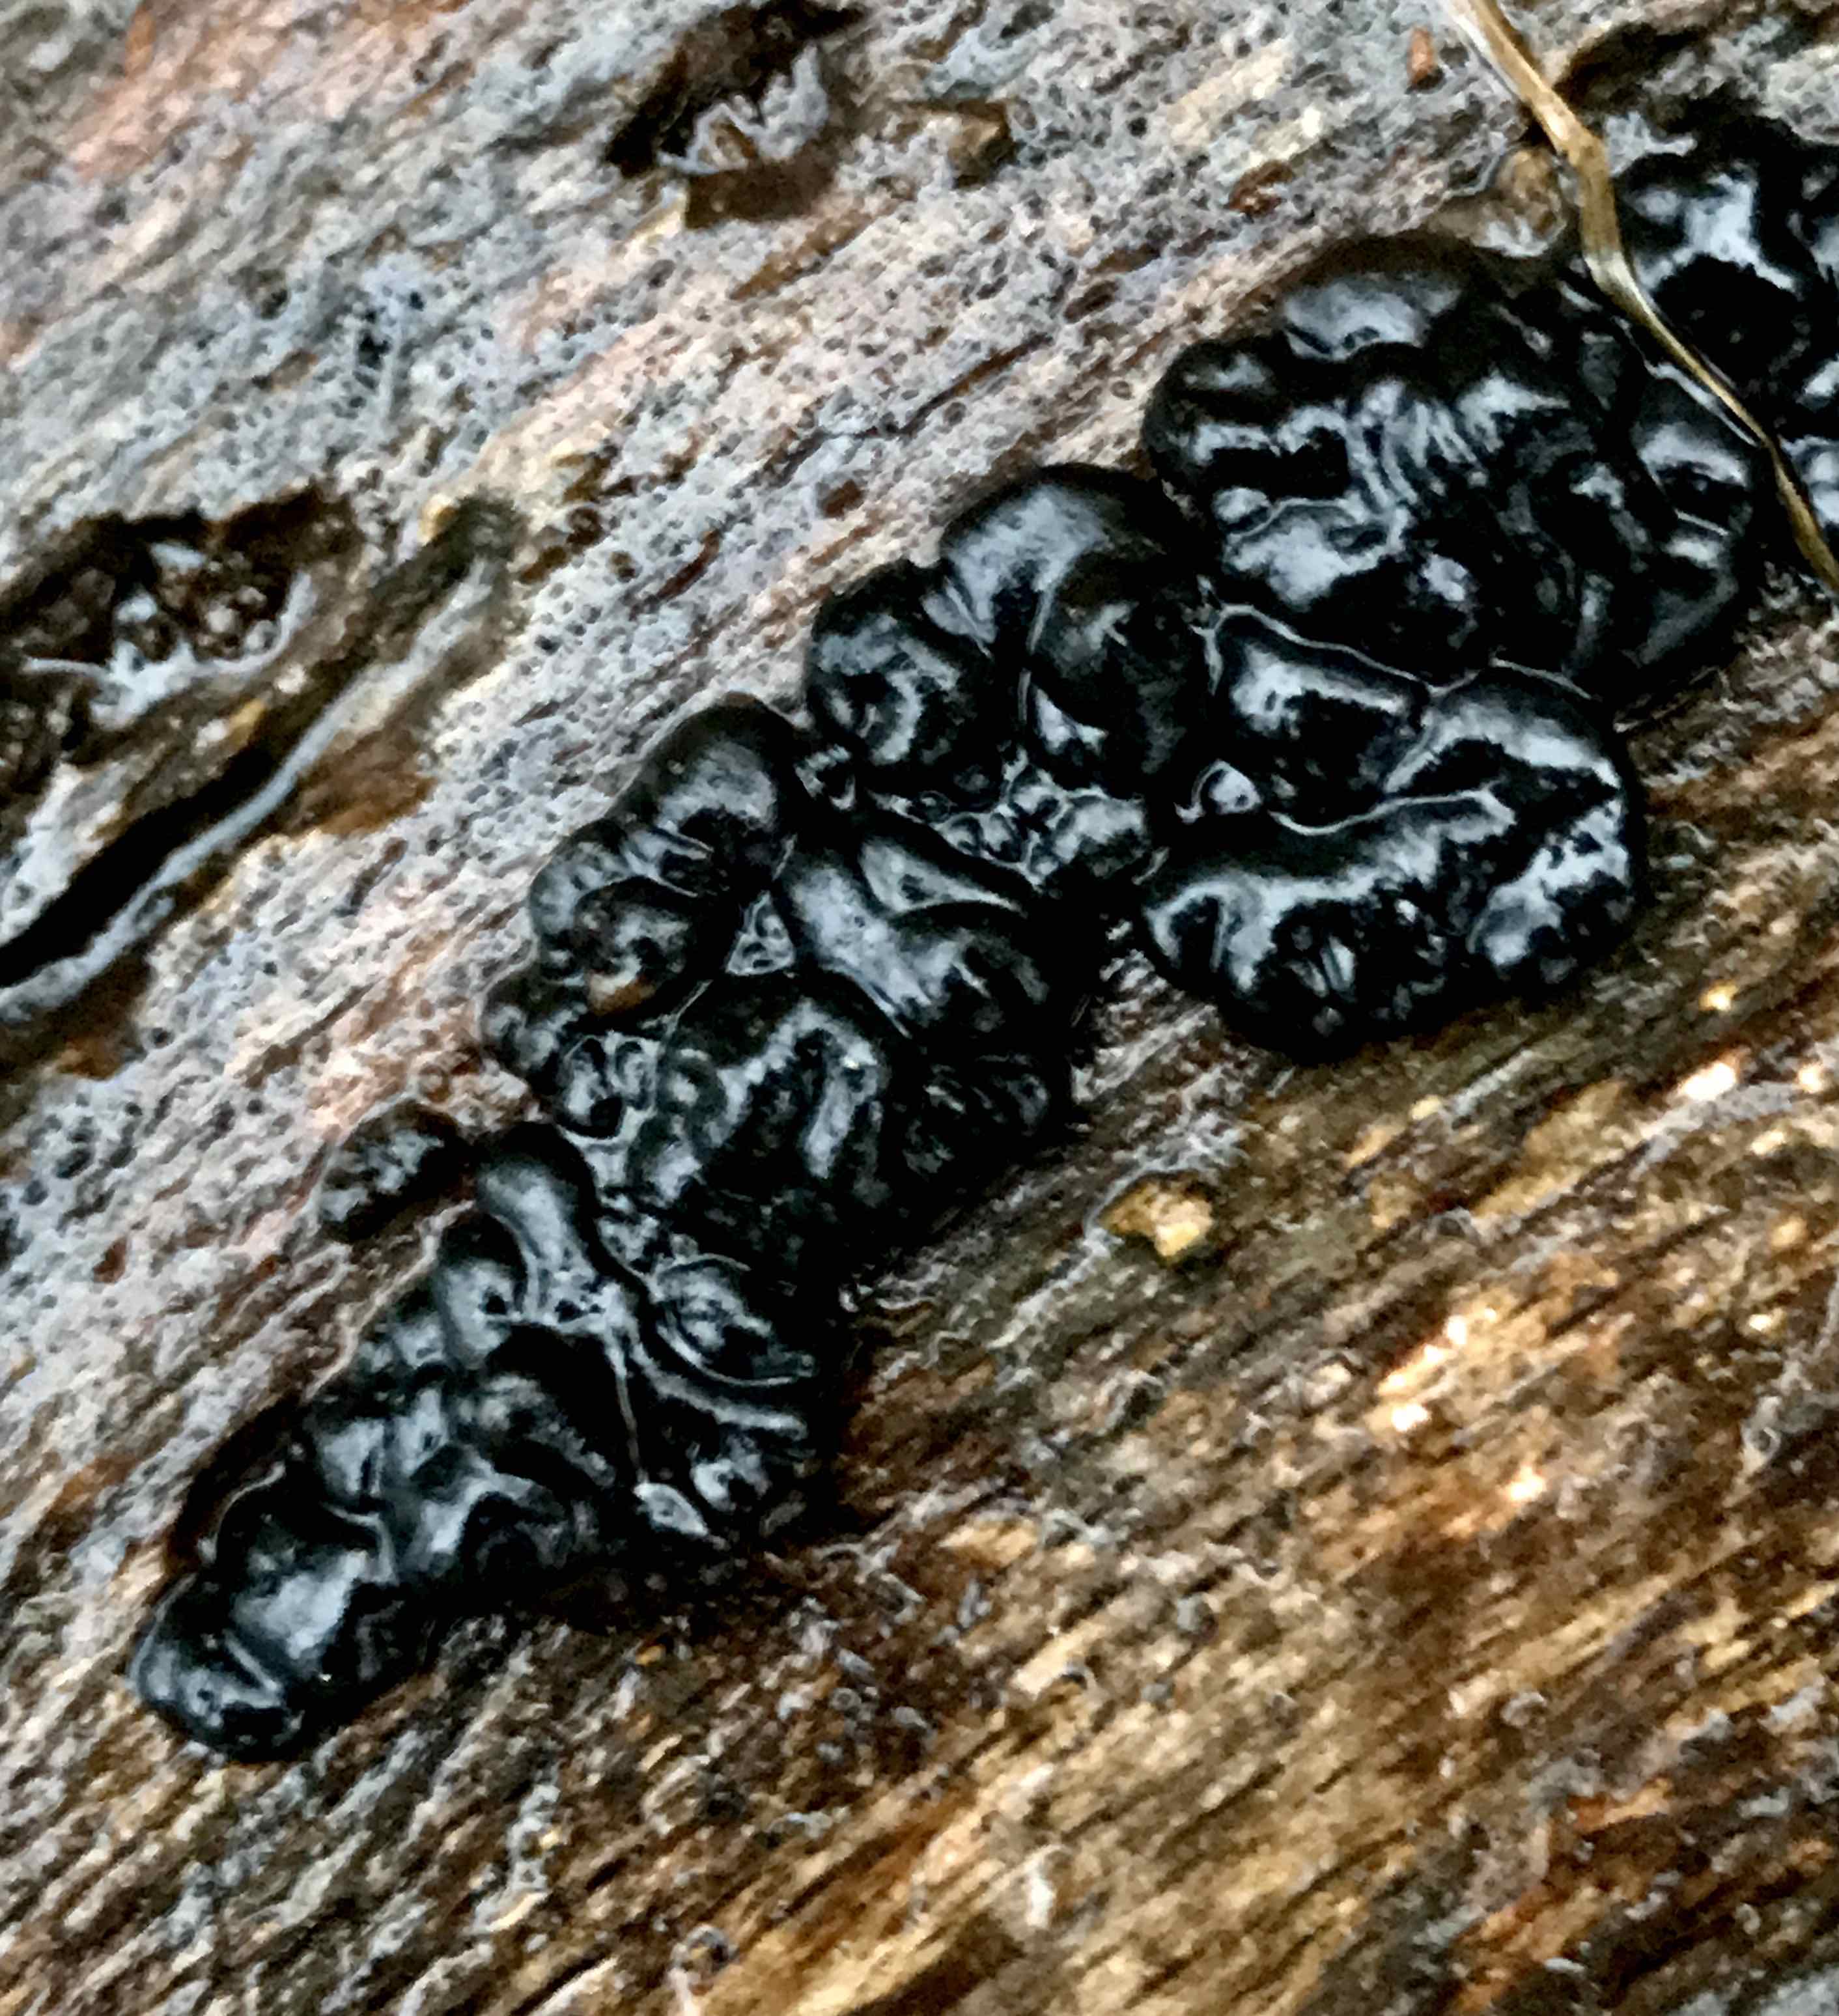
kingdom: Fungi
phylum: Basidiomycota
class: Agaricomycetes
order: Auriculariales
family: Auriculariaceae
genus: Exidia
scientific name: Exidia nigricans
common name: almindelig bævretop
